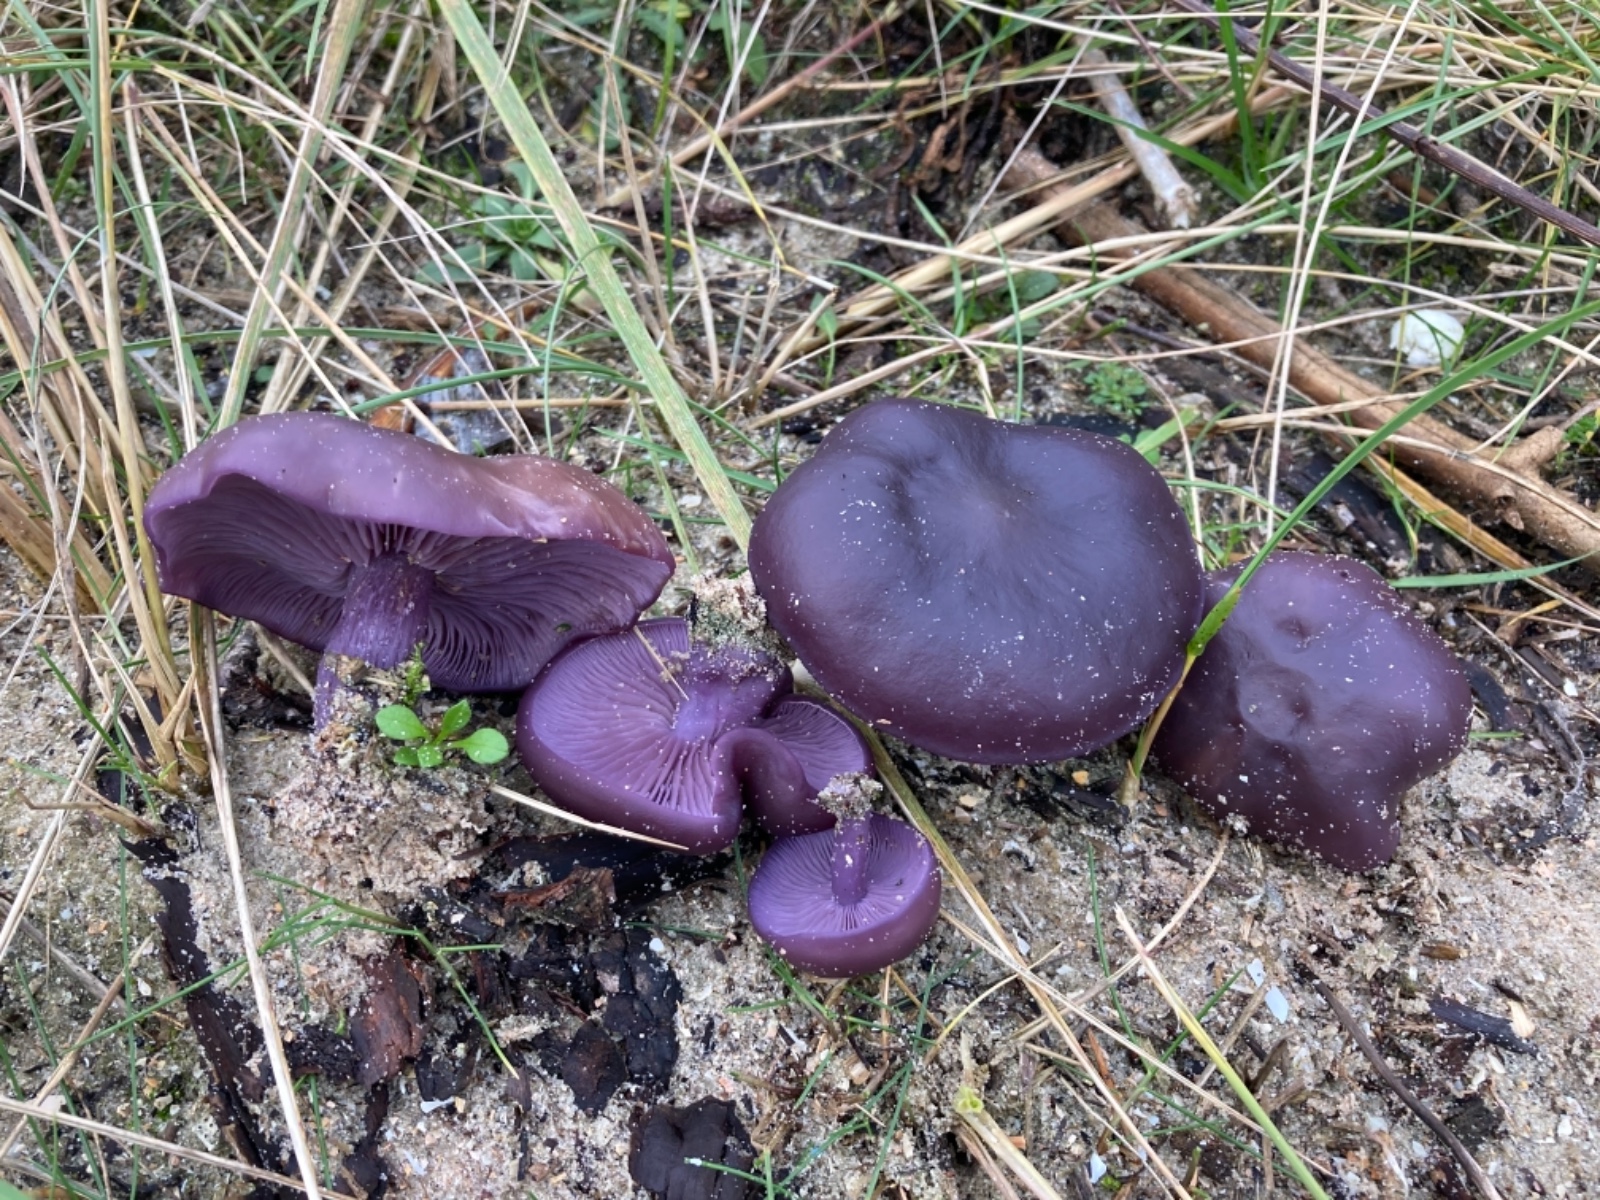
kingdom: Fungi
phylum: Basidiomycota
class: Agaricomycetes
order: Agaricales
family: Tricholomataceae
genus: Lepista
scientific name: Lepista lilacea
